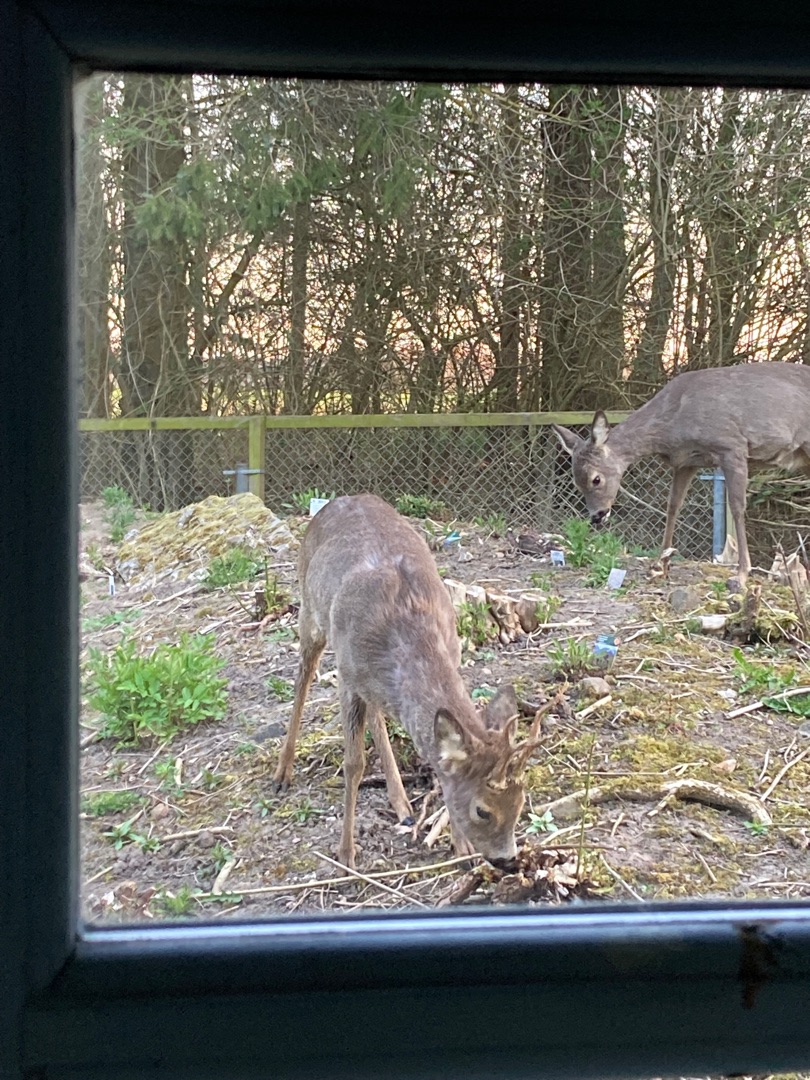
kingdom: Animalia
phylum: Chordata
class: Mammalia
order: Artiodactyla
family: Cervidae
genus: Capreolus
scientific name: Capreolus capreolus
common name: Rådyr
